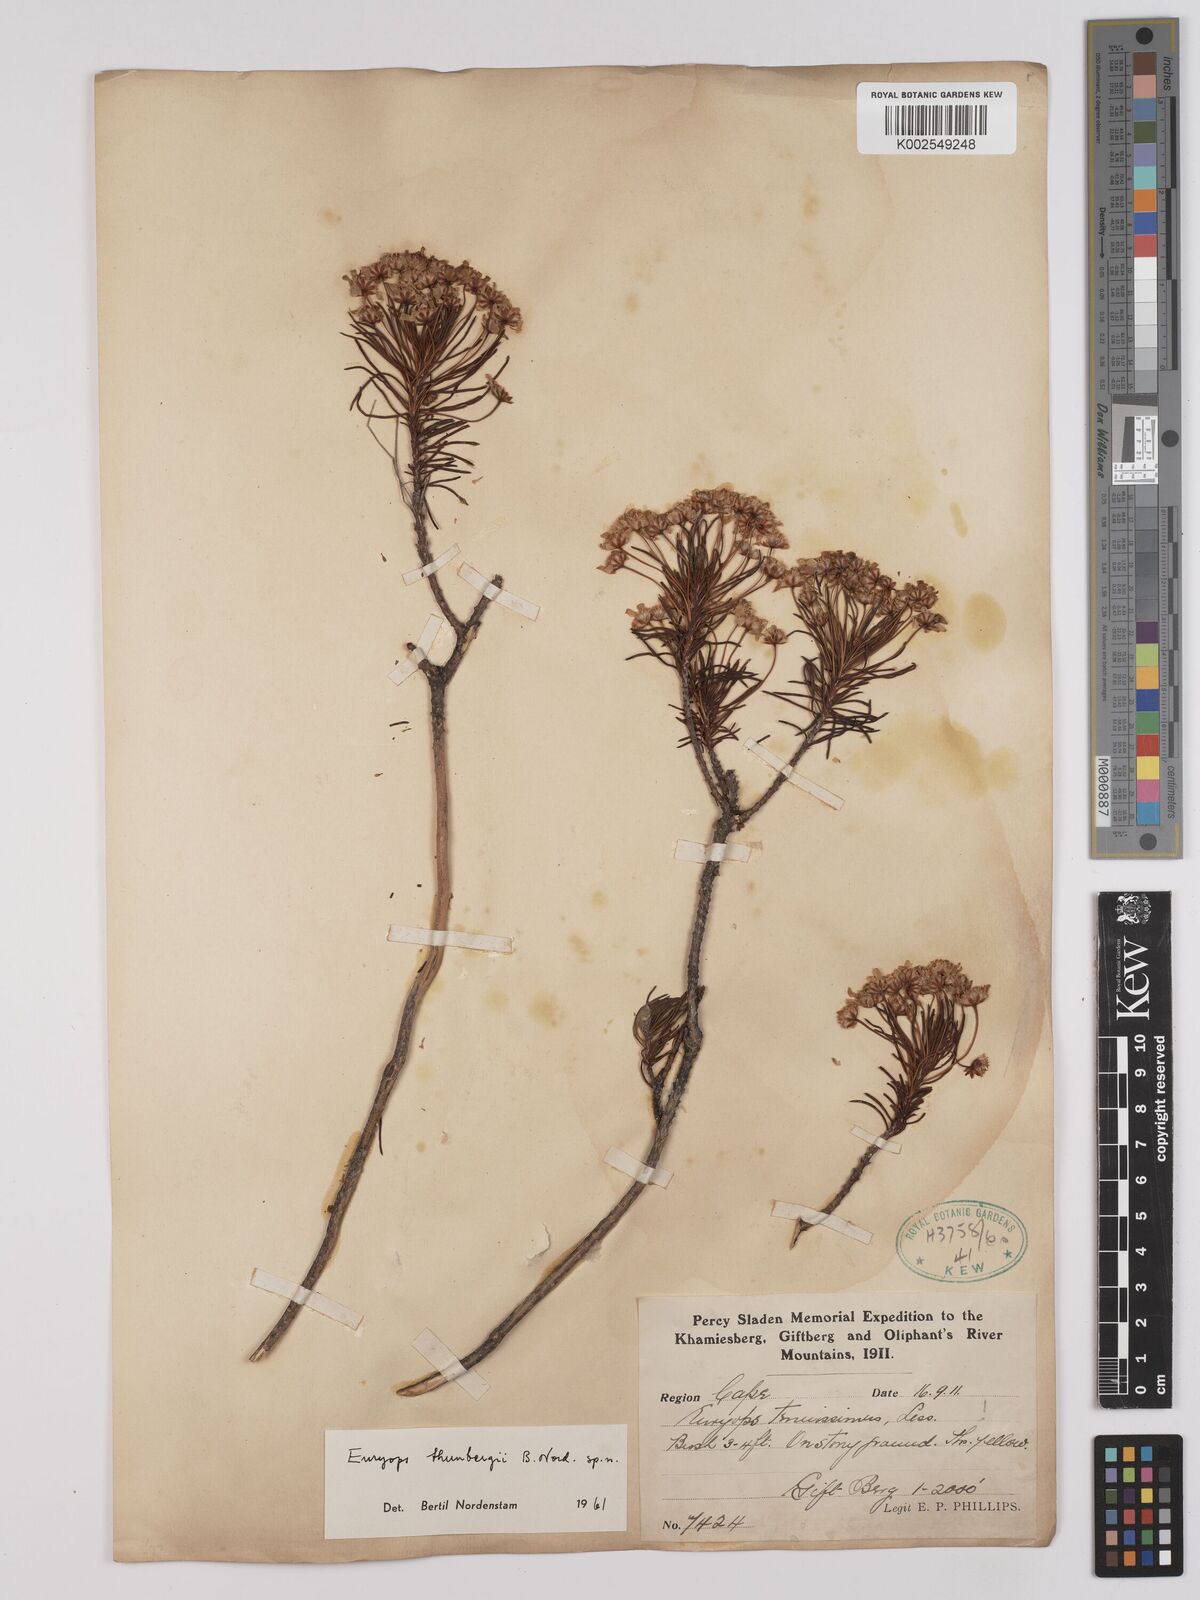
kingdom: Plantae
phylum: Tracheophyta
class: Magnoliopsida
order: Asterales
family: Asteraceae
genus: Euryops
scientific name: Euryops thunbergii
